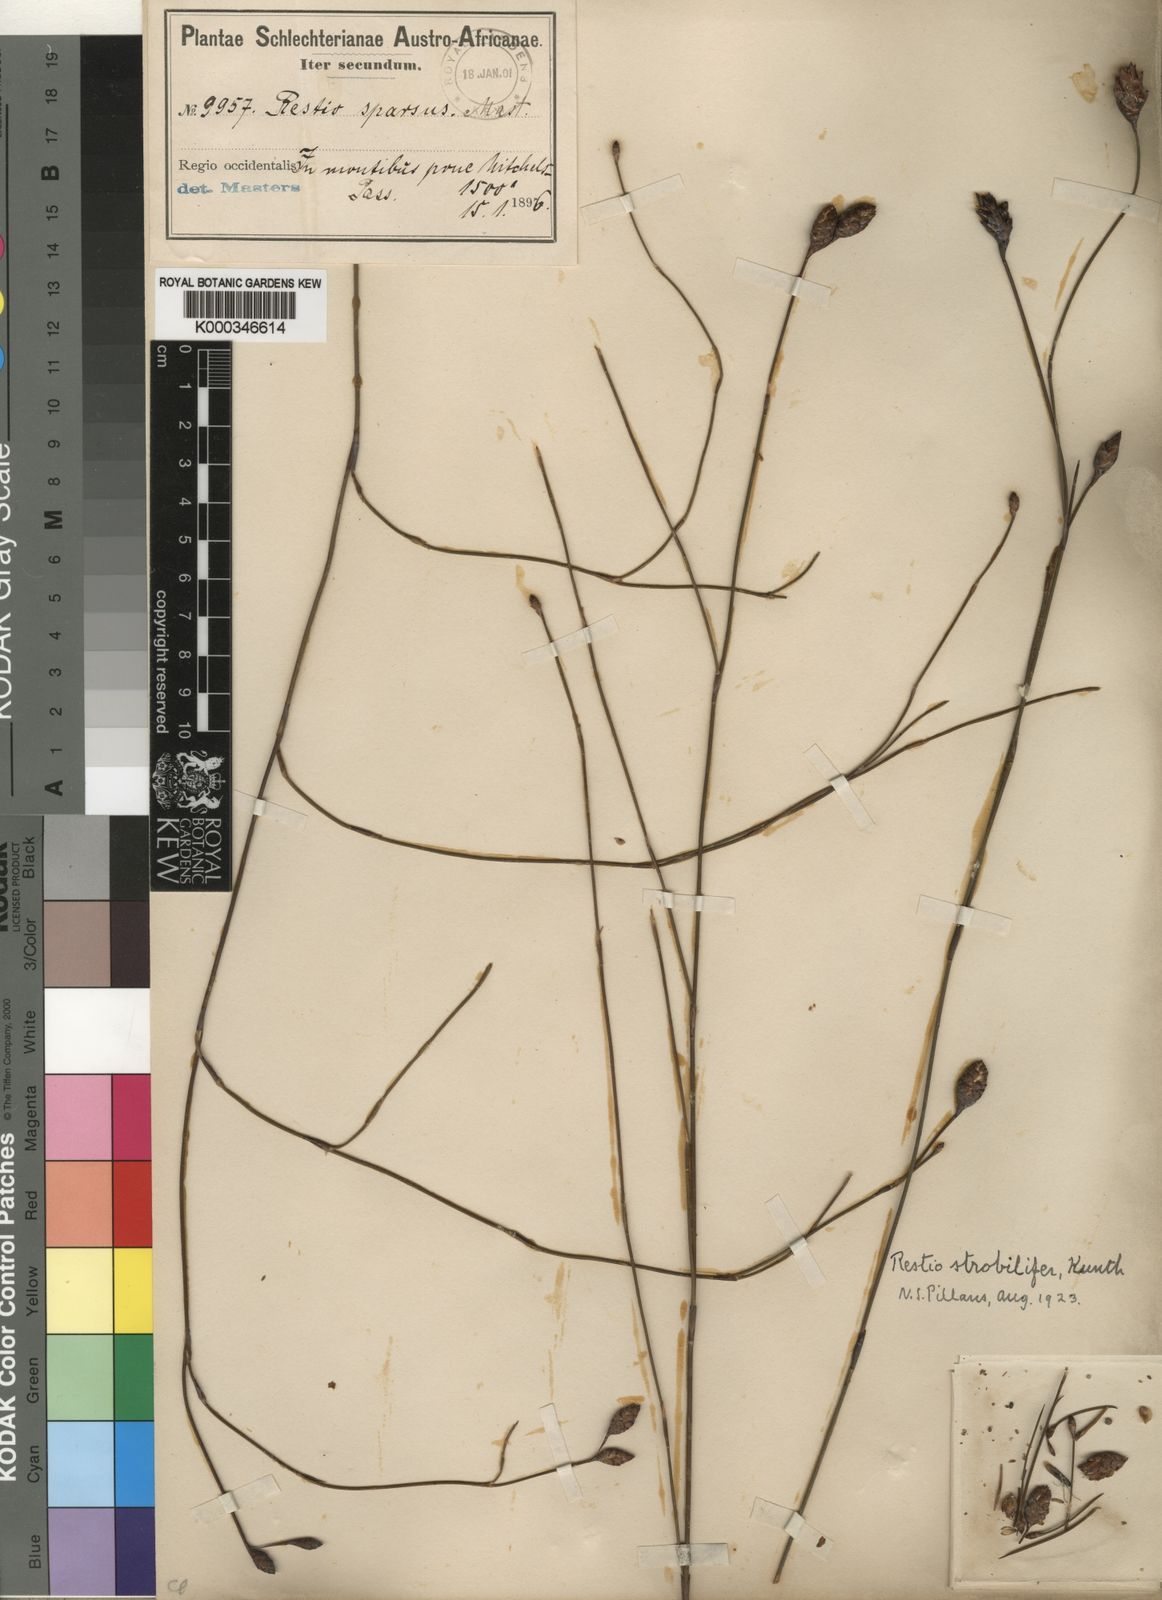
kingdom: Plantae
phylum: Tracheophyta
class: Liliopsida
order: Poales
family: Restionaceae
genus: Restio
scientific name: Restio strobilifer
